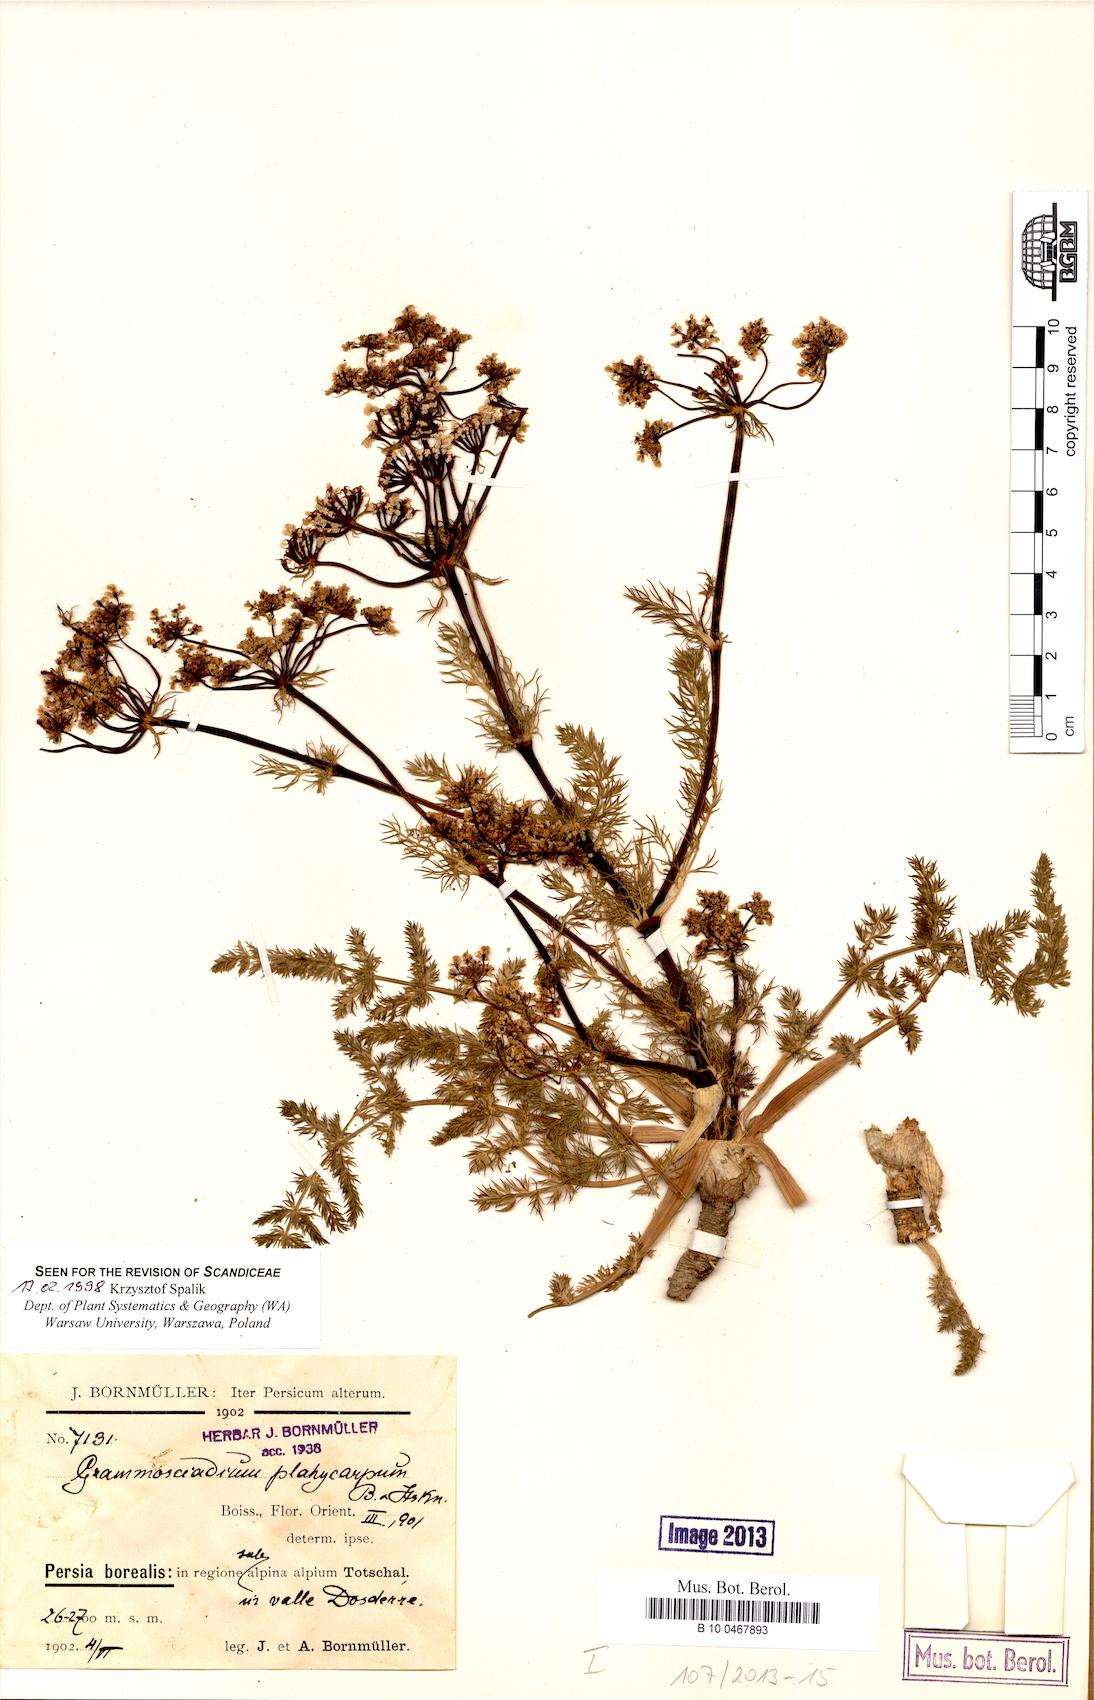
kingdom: Plantae
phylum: Tracheophyta
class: Magnoliopsida
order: Apiales
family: Apiaceae
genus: Caropodium
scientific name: Caropodium platycarpum
